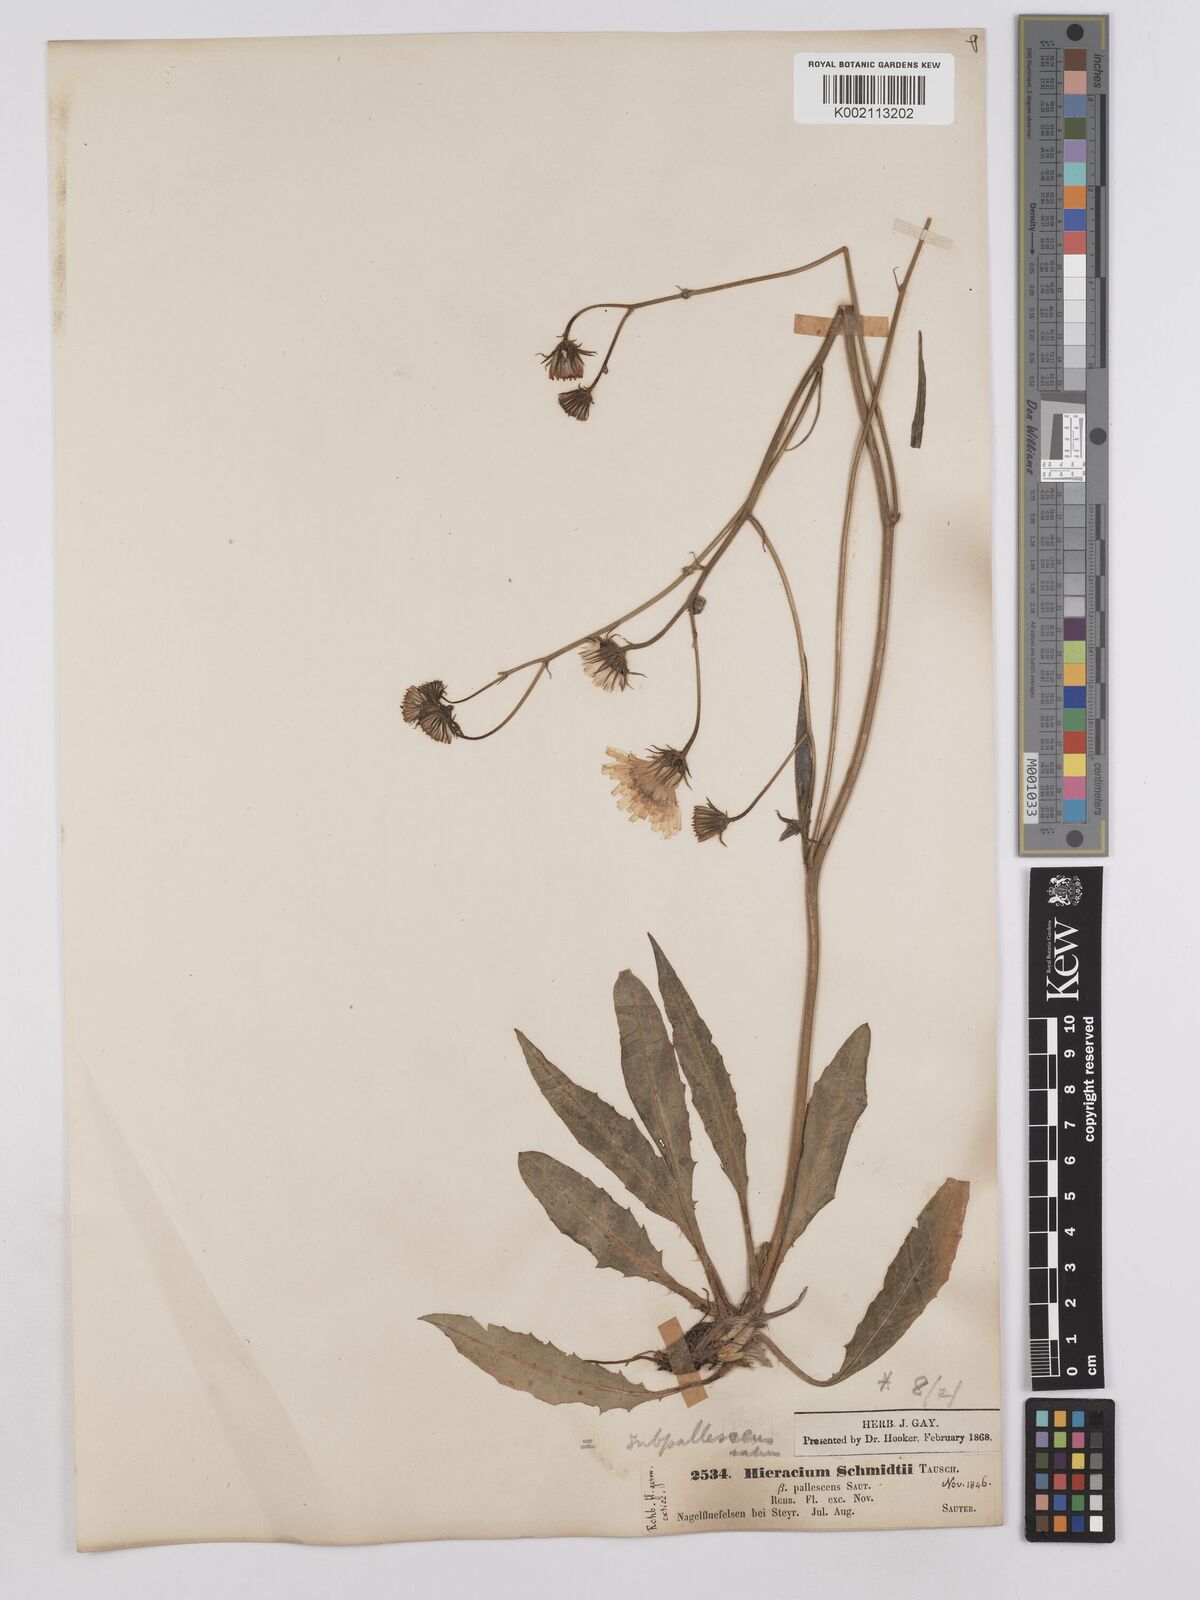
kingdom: Plantae
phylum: Tracheophyta
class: Magnoliopsida
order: Asterales
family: Asteraceae
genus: Crepis
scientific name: Crepis blattarioides
